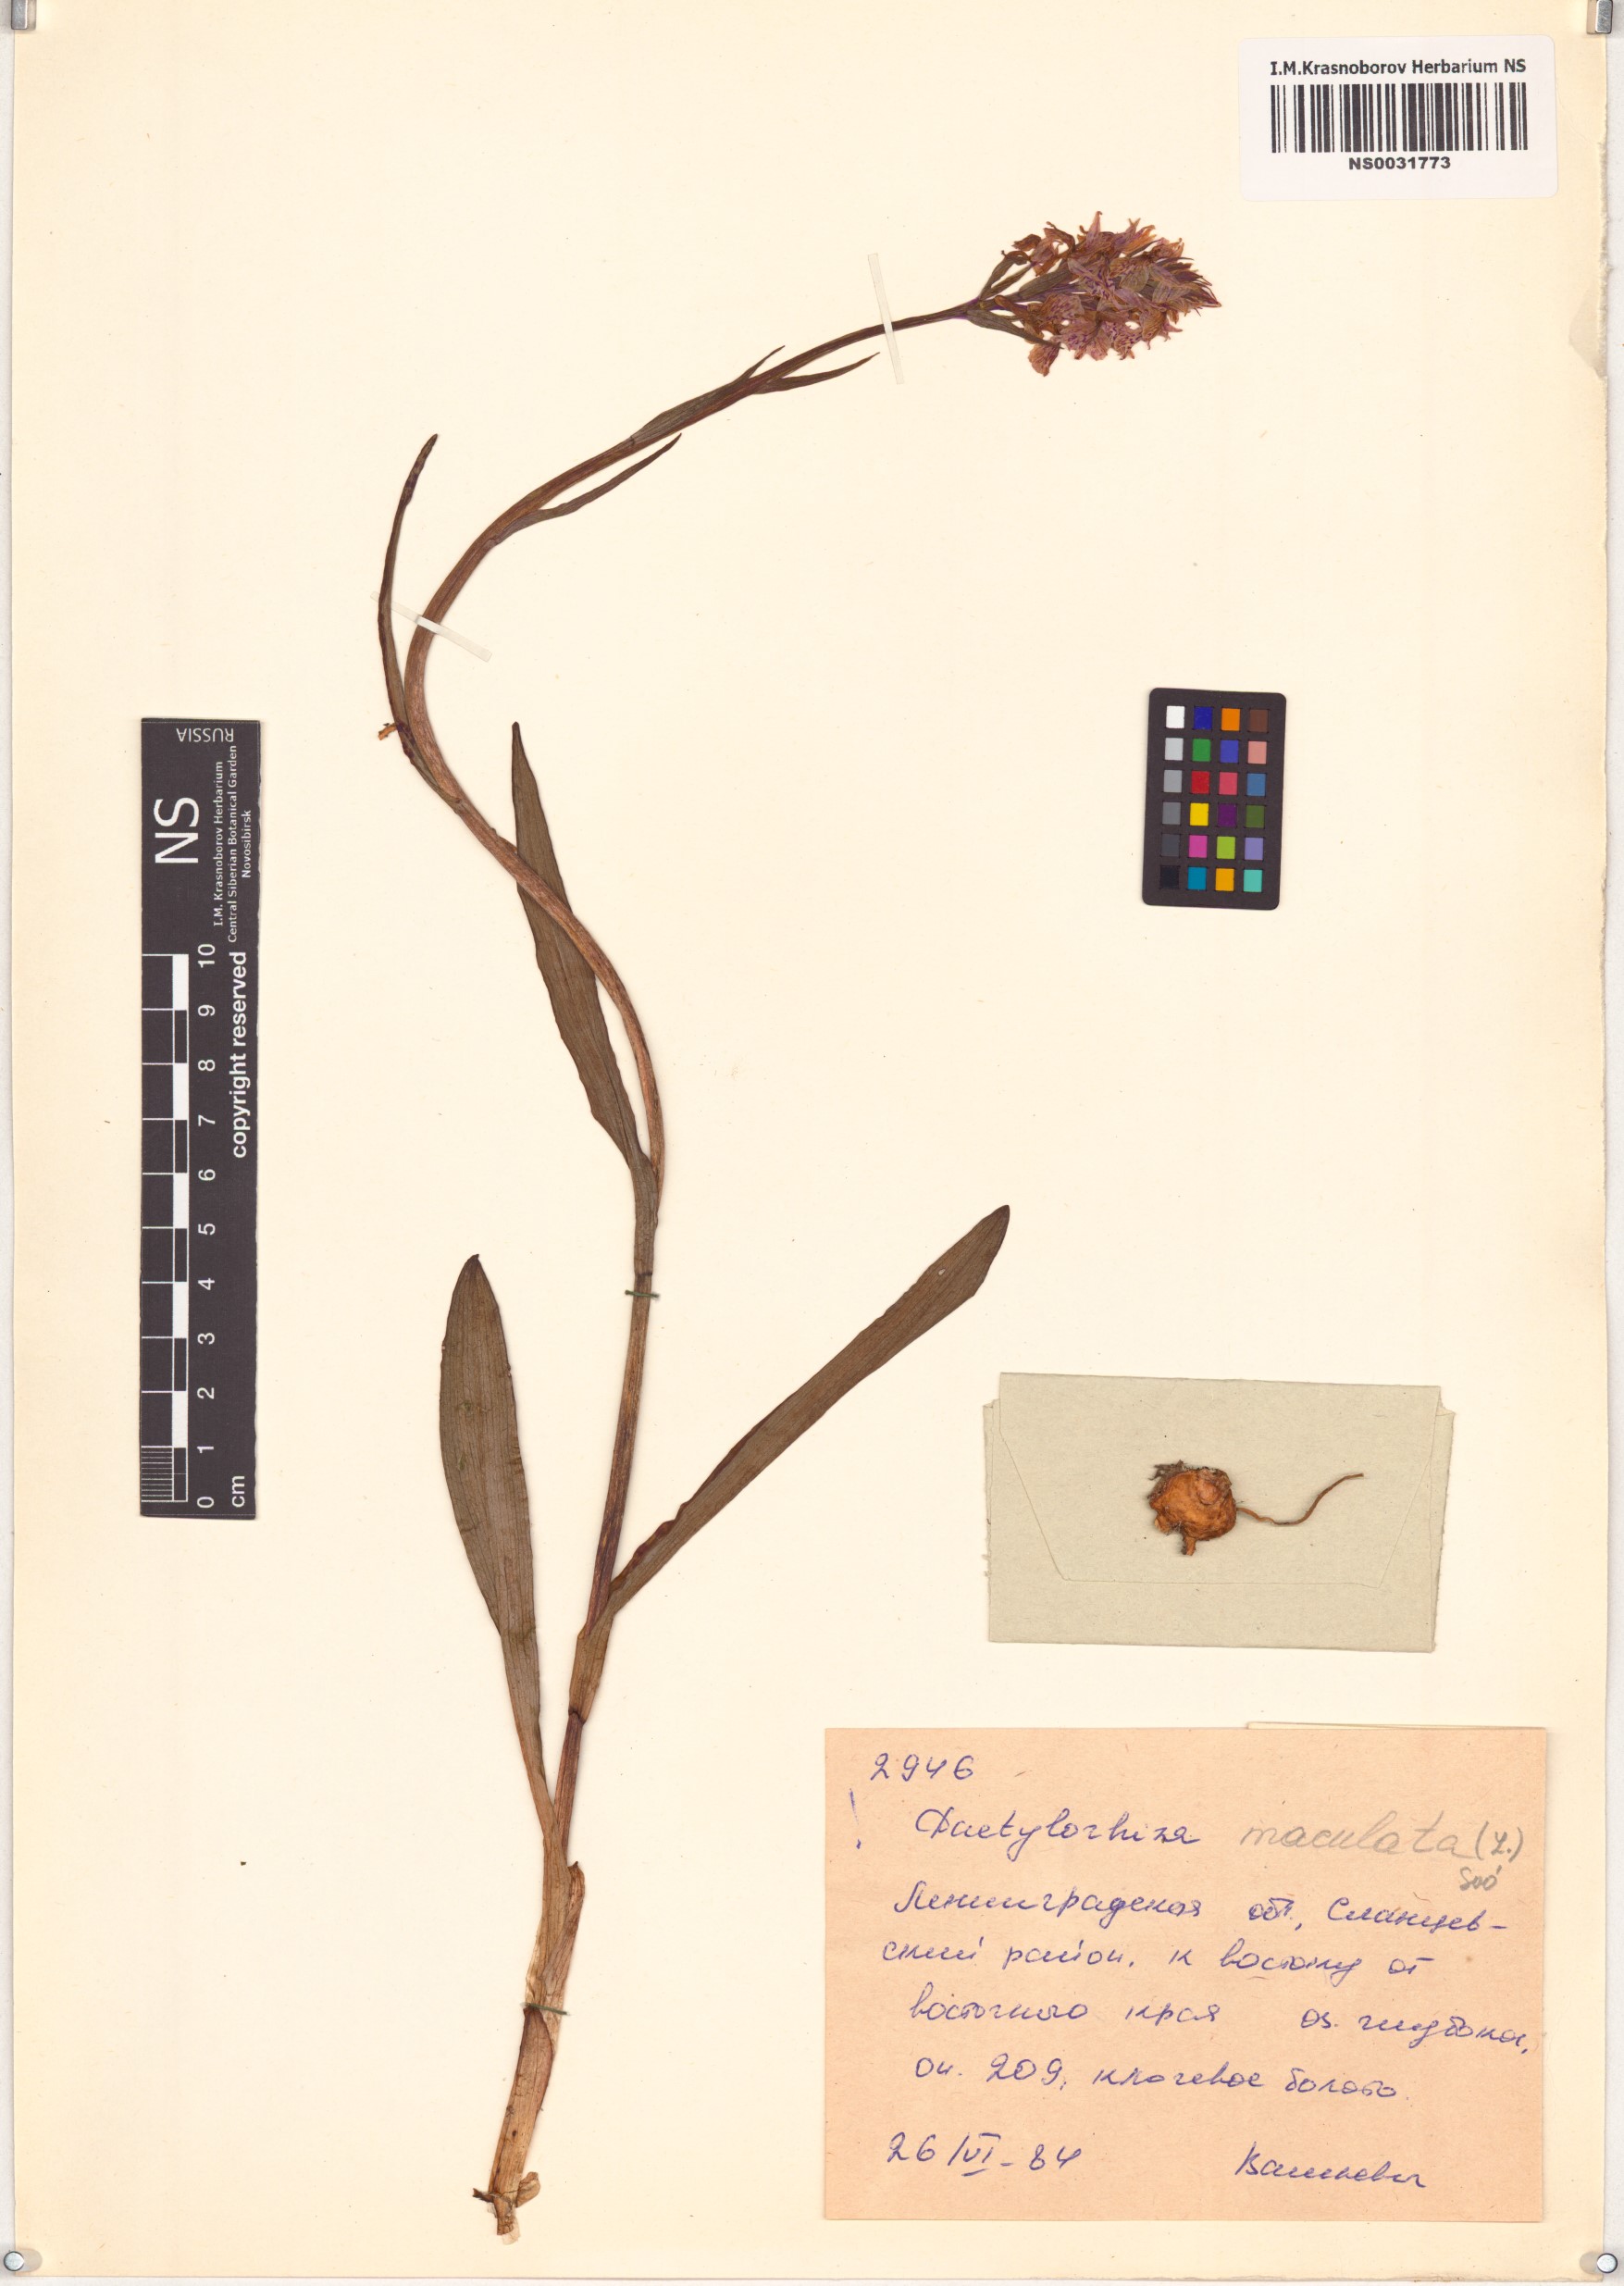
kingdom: Plantae
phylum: Tracheophyta
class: Liliopsida
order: Asparagales
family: Orchidaceae
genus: Dactylorhiza
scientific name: Dactylorhiza maculata
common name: Heath spotted-orchid
